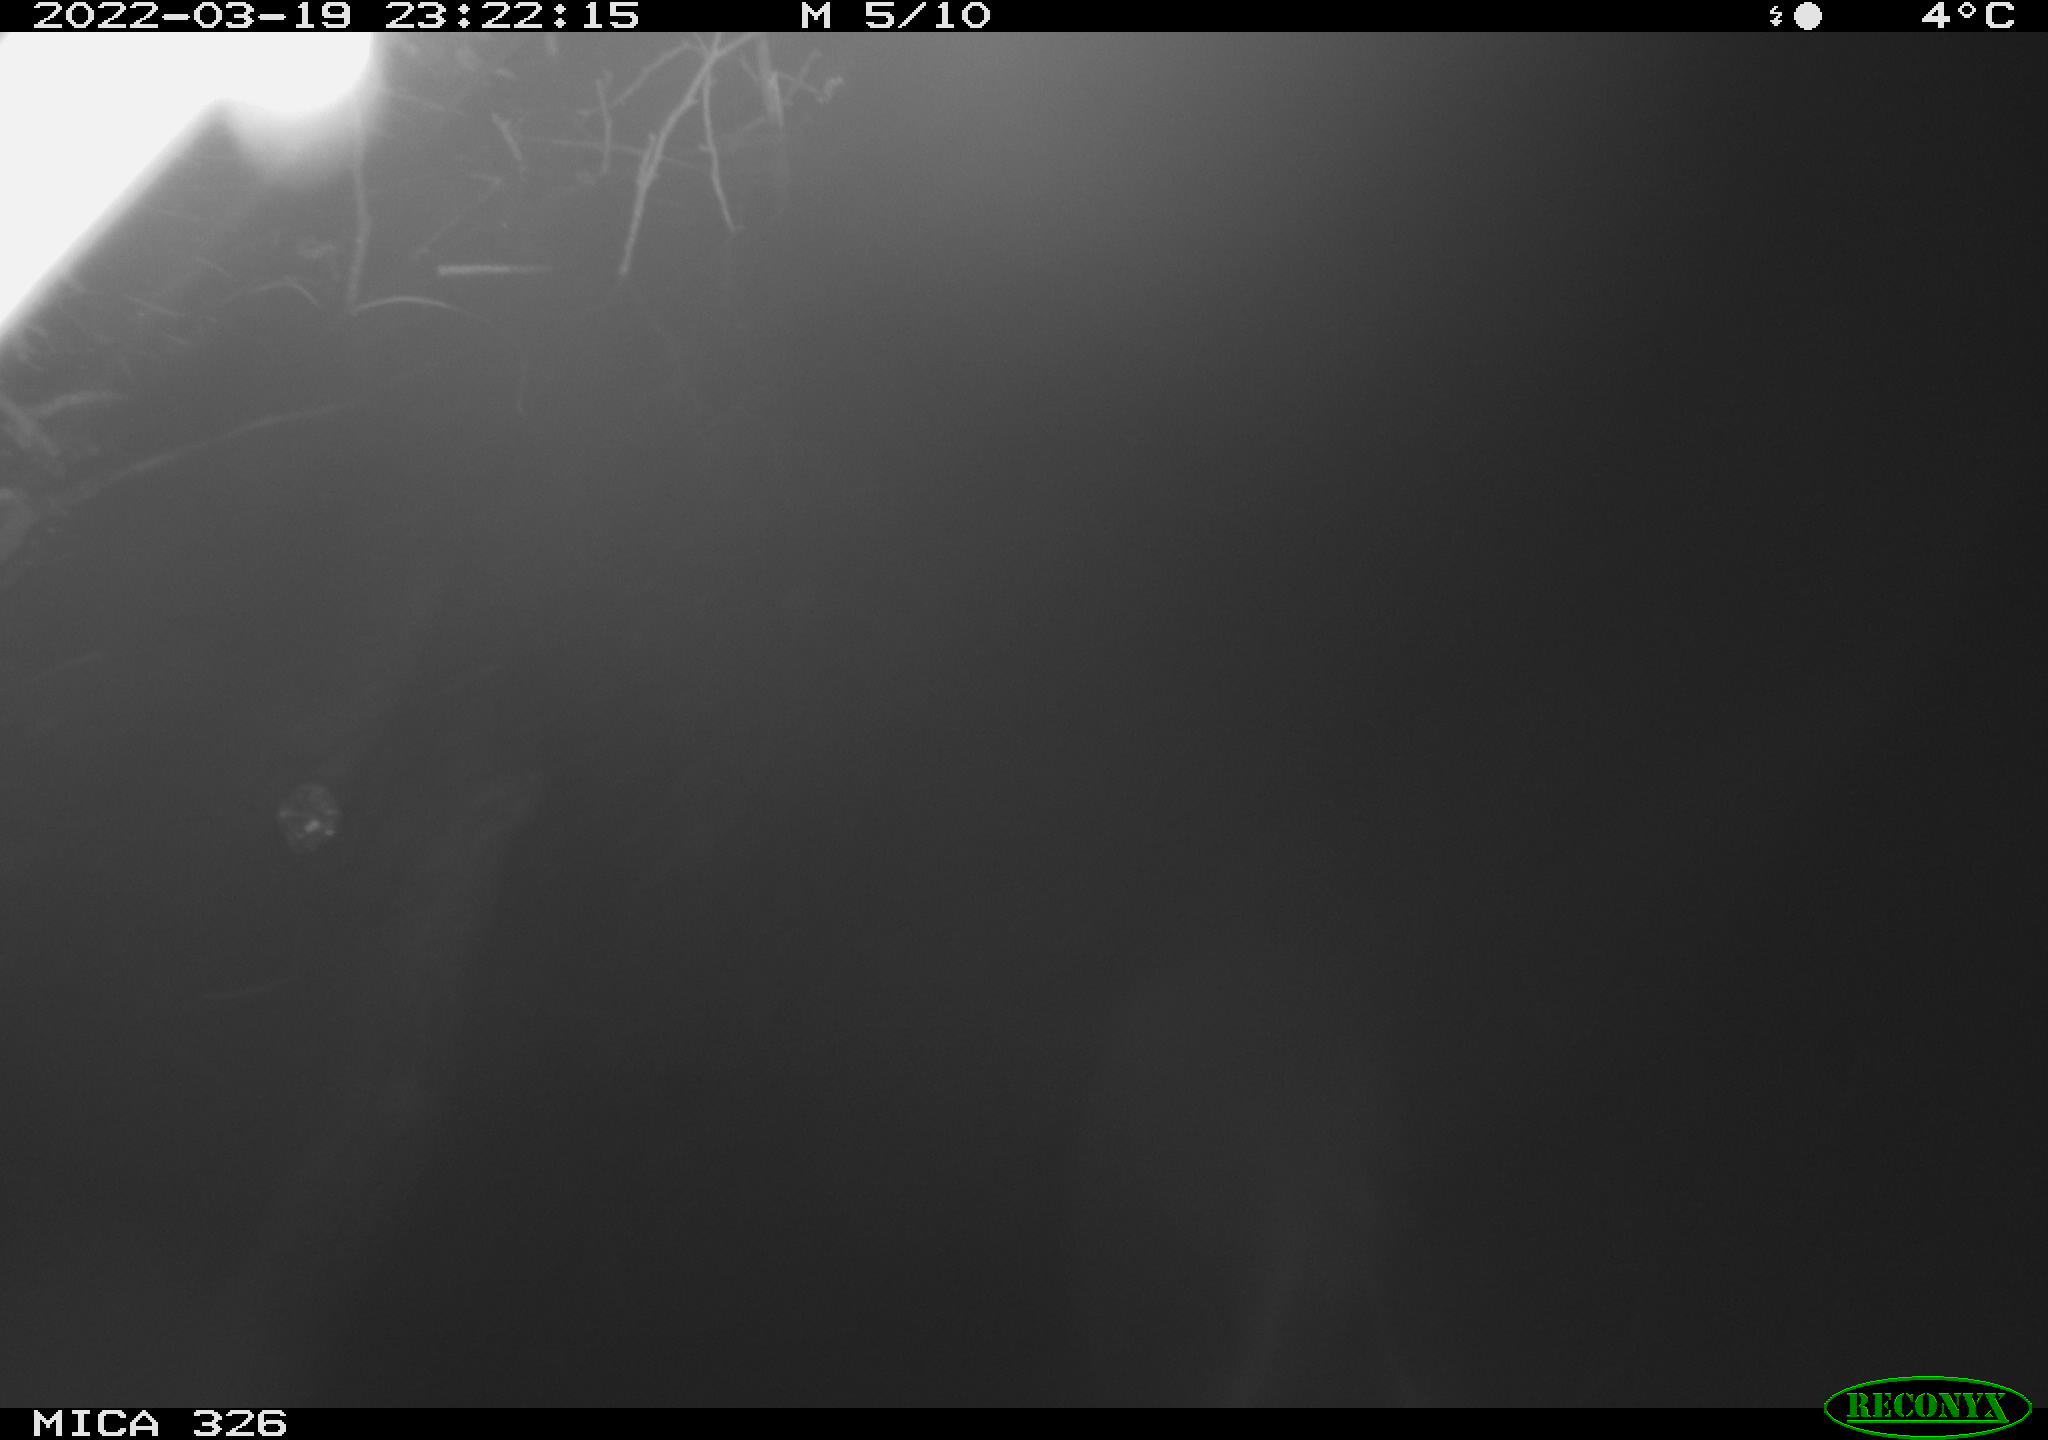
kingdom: Animalia
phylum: Chordata
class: Mammalia
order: Rodentia
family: Muridae
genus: Rattus
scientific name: Rattus norvegicus
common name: Brown rat
